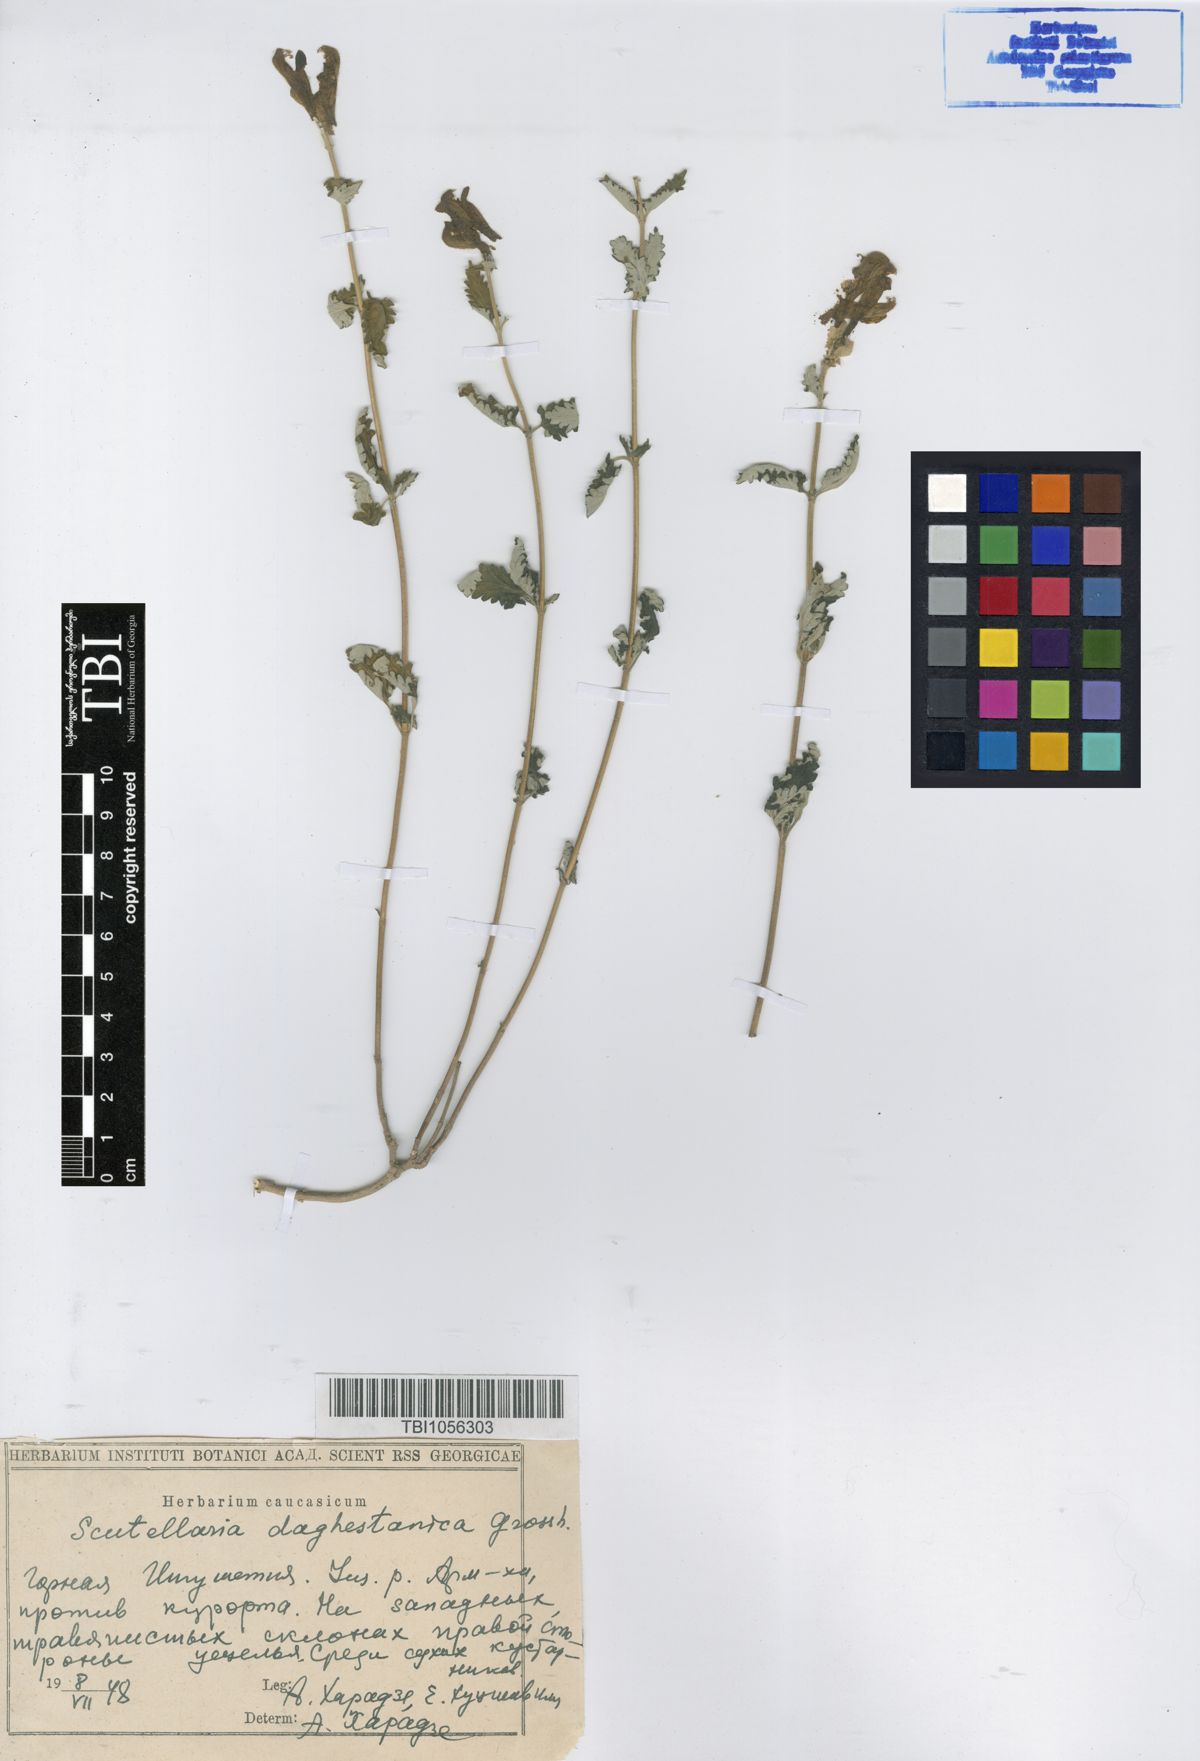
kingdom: Plantae
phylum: Tracheophyta
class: Magnoliopsida
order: Lamiales
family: Lamiaceae
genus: Scutellaria
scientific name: Scutellaria daghestanica
